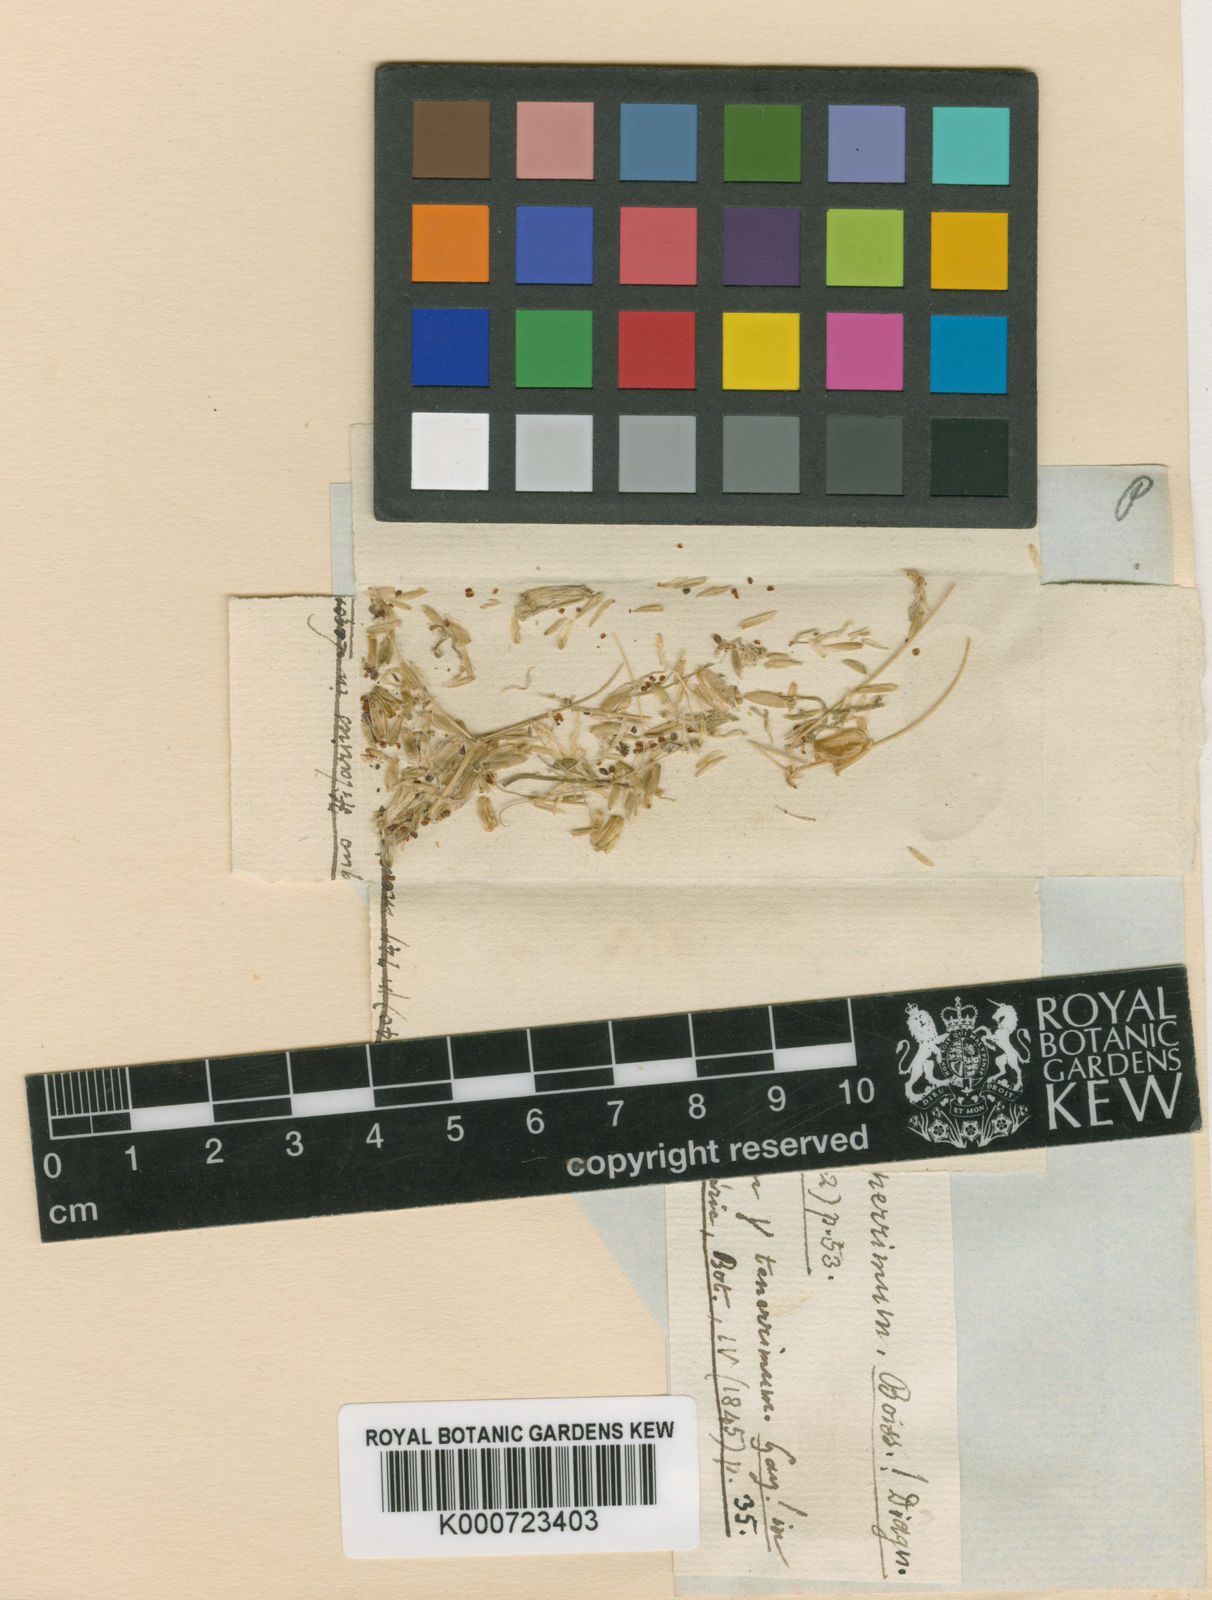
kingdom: Plantae
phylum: Tracheophyta
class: Magnoliopsida
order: Caryophyllales
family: Caryophyllaceae
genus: Holosteum
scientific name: Holosteum umbellatum
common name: Jagged chickweed
